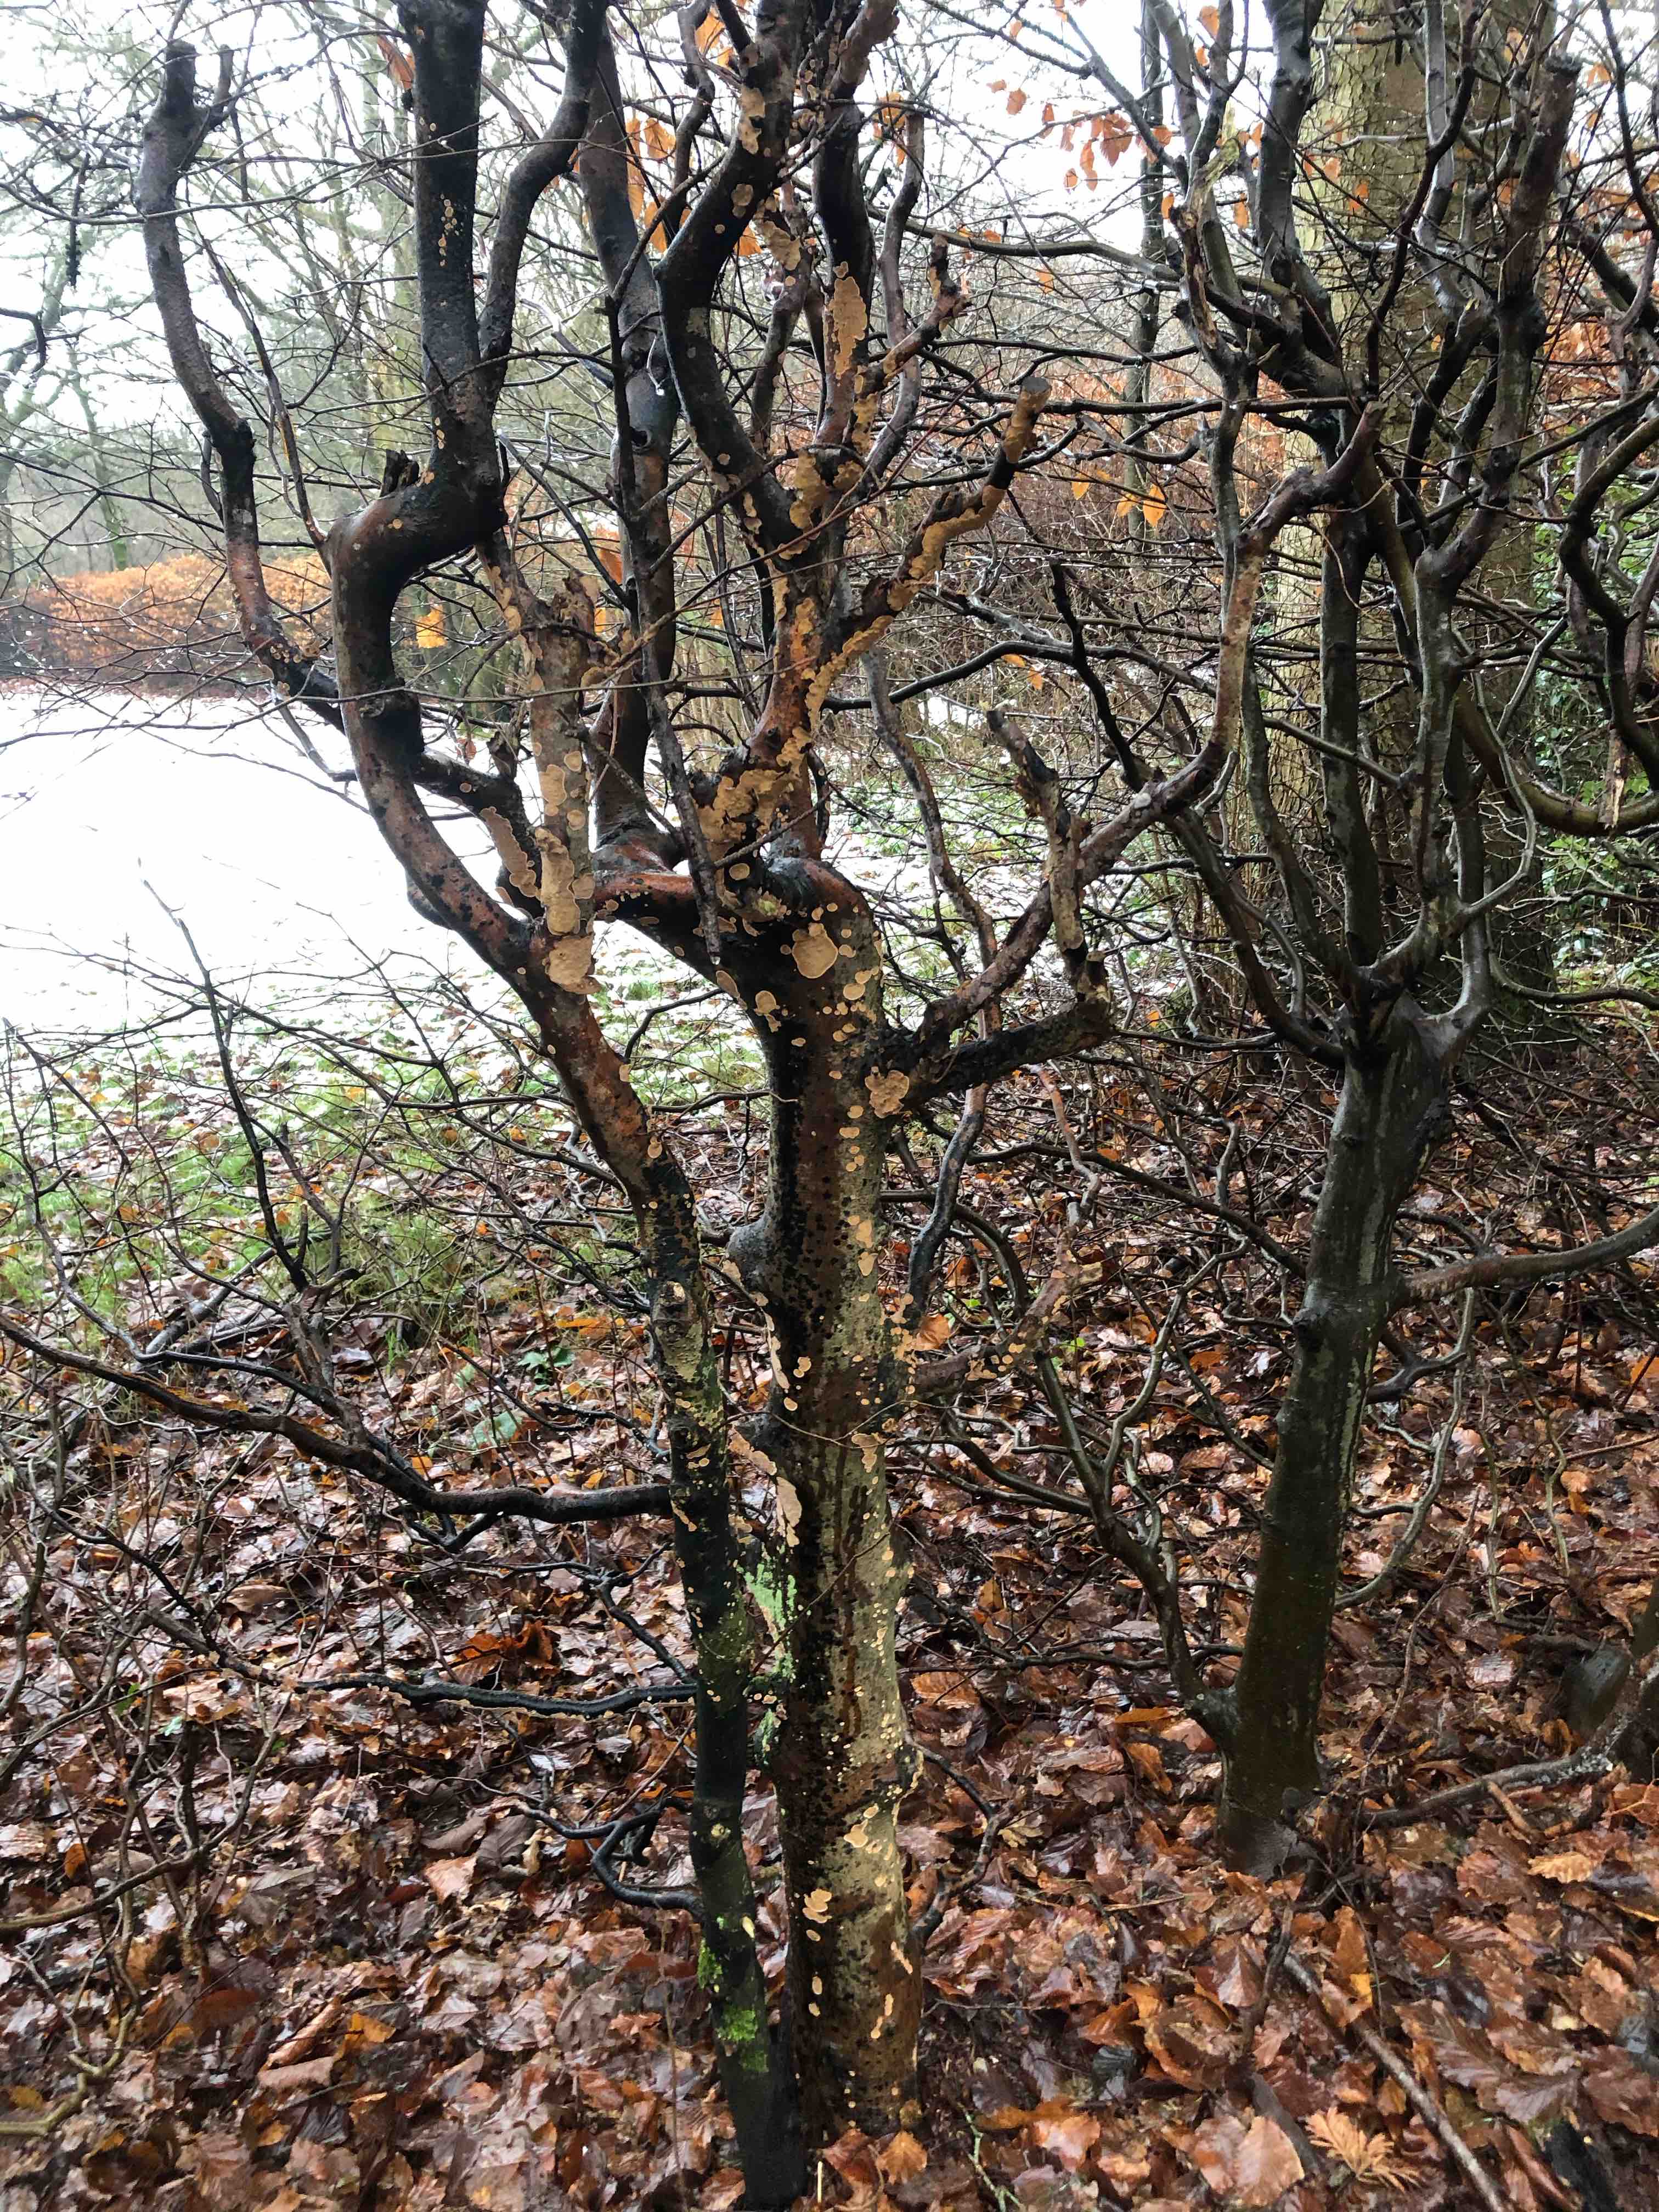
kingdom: Fungi
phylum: Basidiomycota
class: Agaricomycetes
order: Russulales
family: Stereaceae
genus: Stereum
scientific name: Stereum rugosum
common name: rynket lædersvamp
